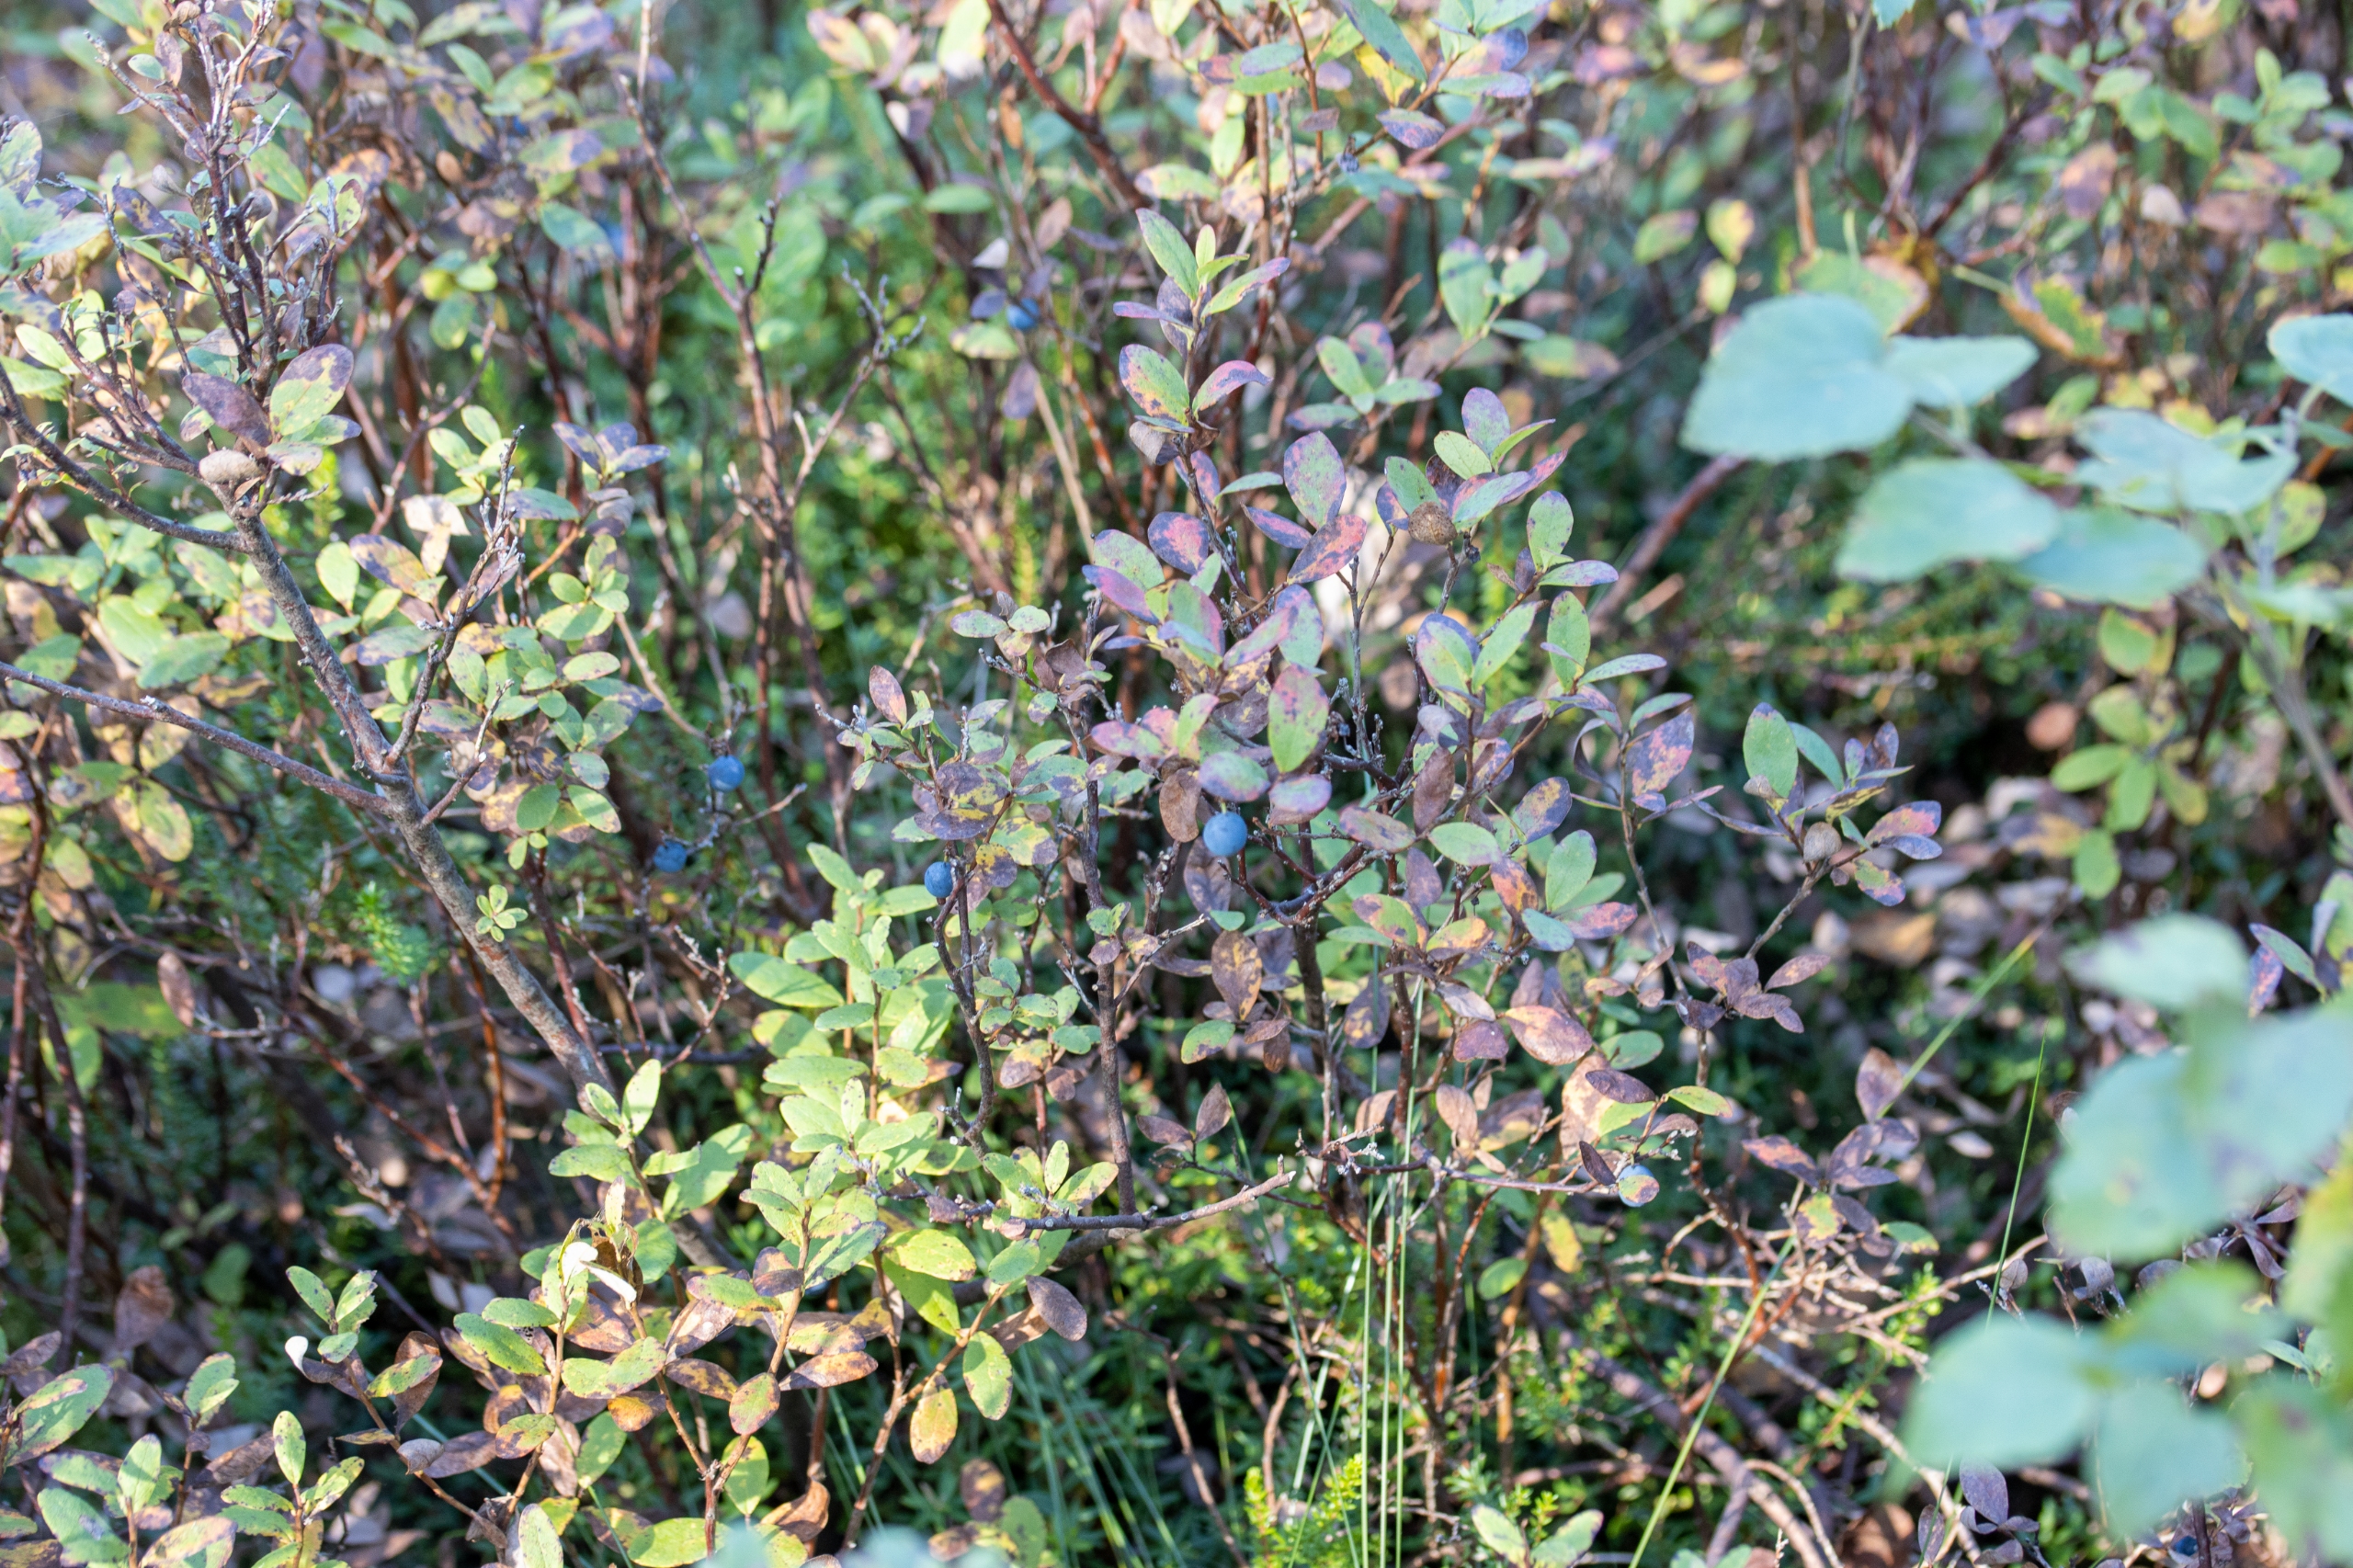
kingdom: Plantae
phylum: Tracheophyta
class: Magnoliopsida
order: Ericales
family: Ericaceae
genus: Vaccinium
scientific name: Vaccinium uliginosum
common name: Mose-bølle
